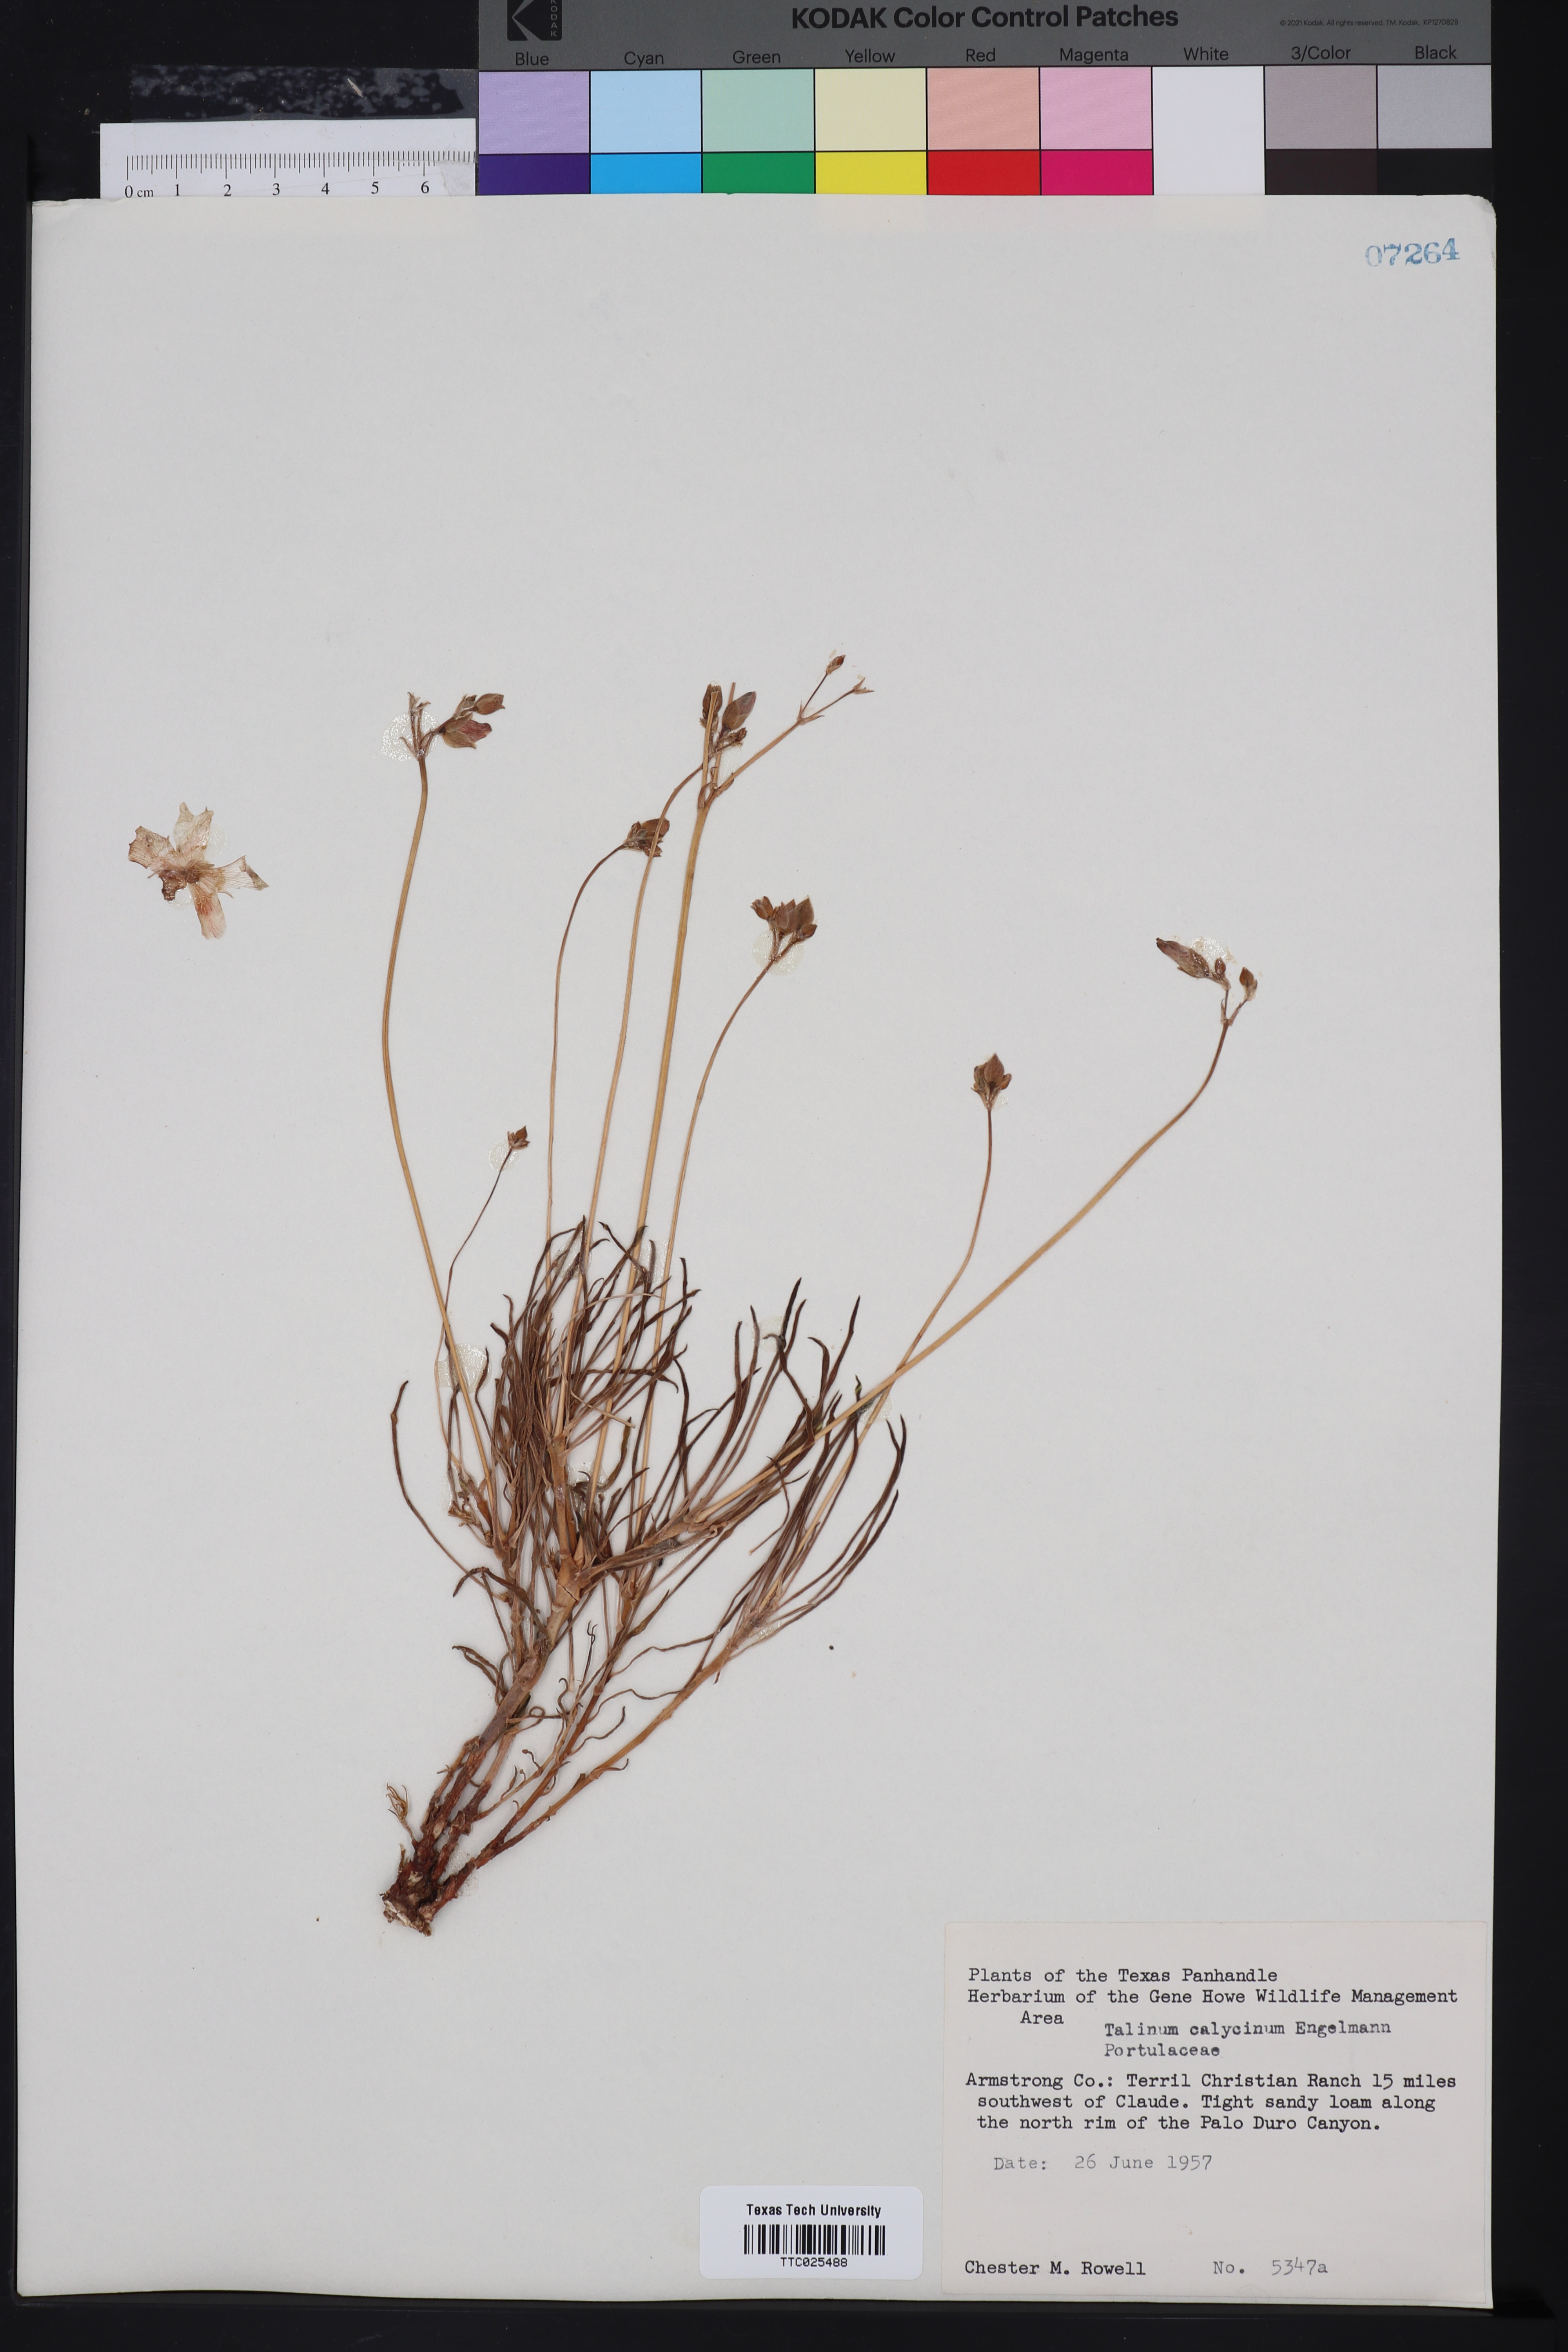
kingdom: Plantae
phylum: Tracheophyta
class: Magnoliopsida
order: Caryophyllales
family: Montiaceae
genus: Phemeranthus
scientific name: Phemeranthus calycinus
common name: Largeflower fameflower
